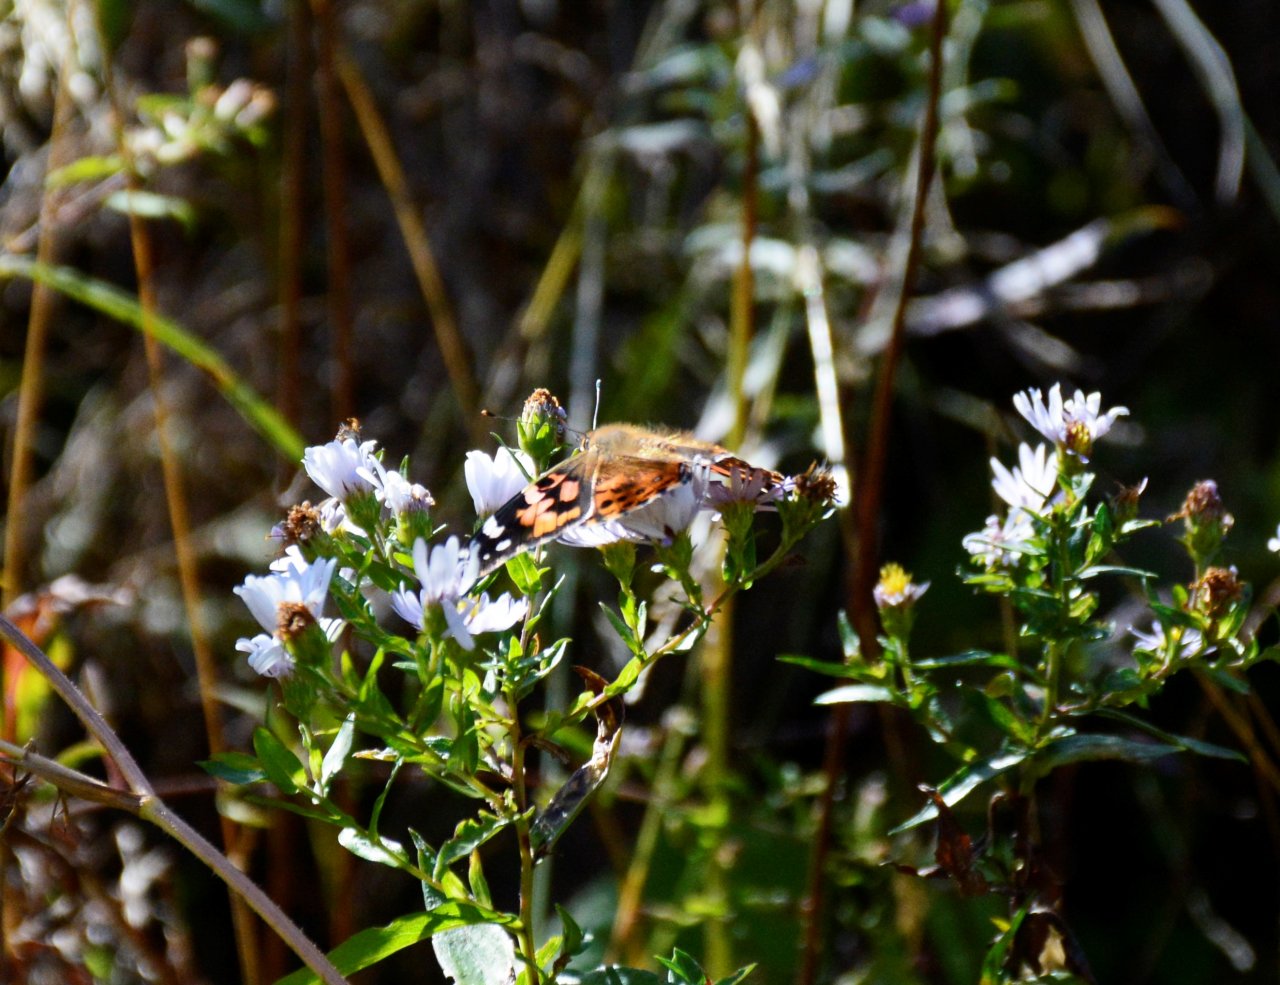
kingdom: Animalia
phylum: Arthropoda
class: Insecta
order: Lepidoptera
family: Nymphalidae
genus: Vanessa
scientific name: Vanessa cardui
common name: Painted Lady
